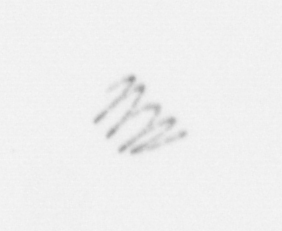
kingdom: Chromista
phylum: Ochrophyta
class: Bacillariophyceae
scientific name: Bacillariophyceae
